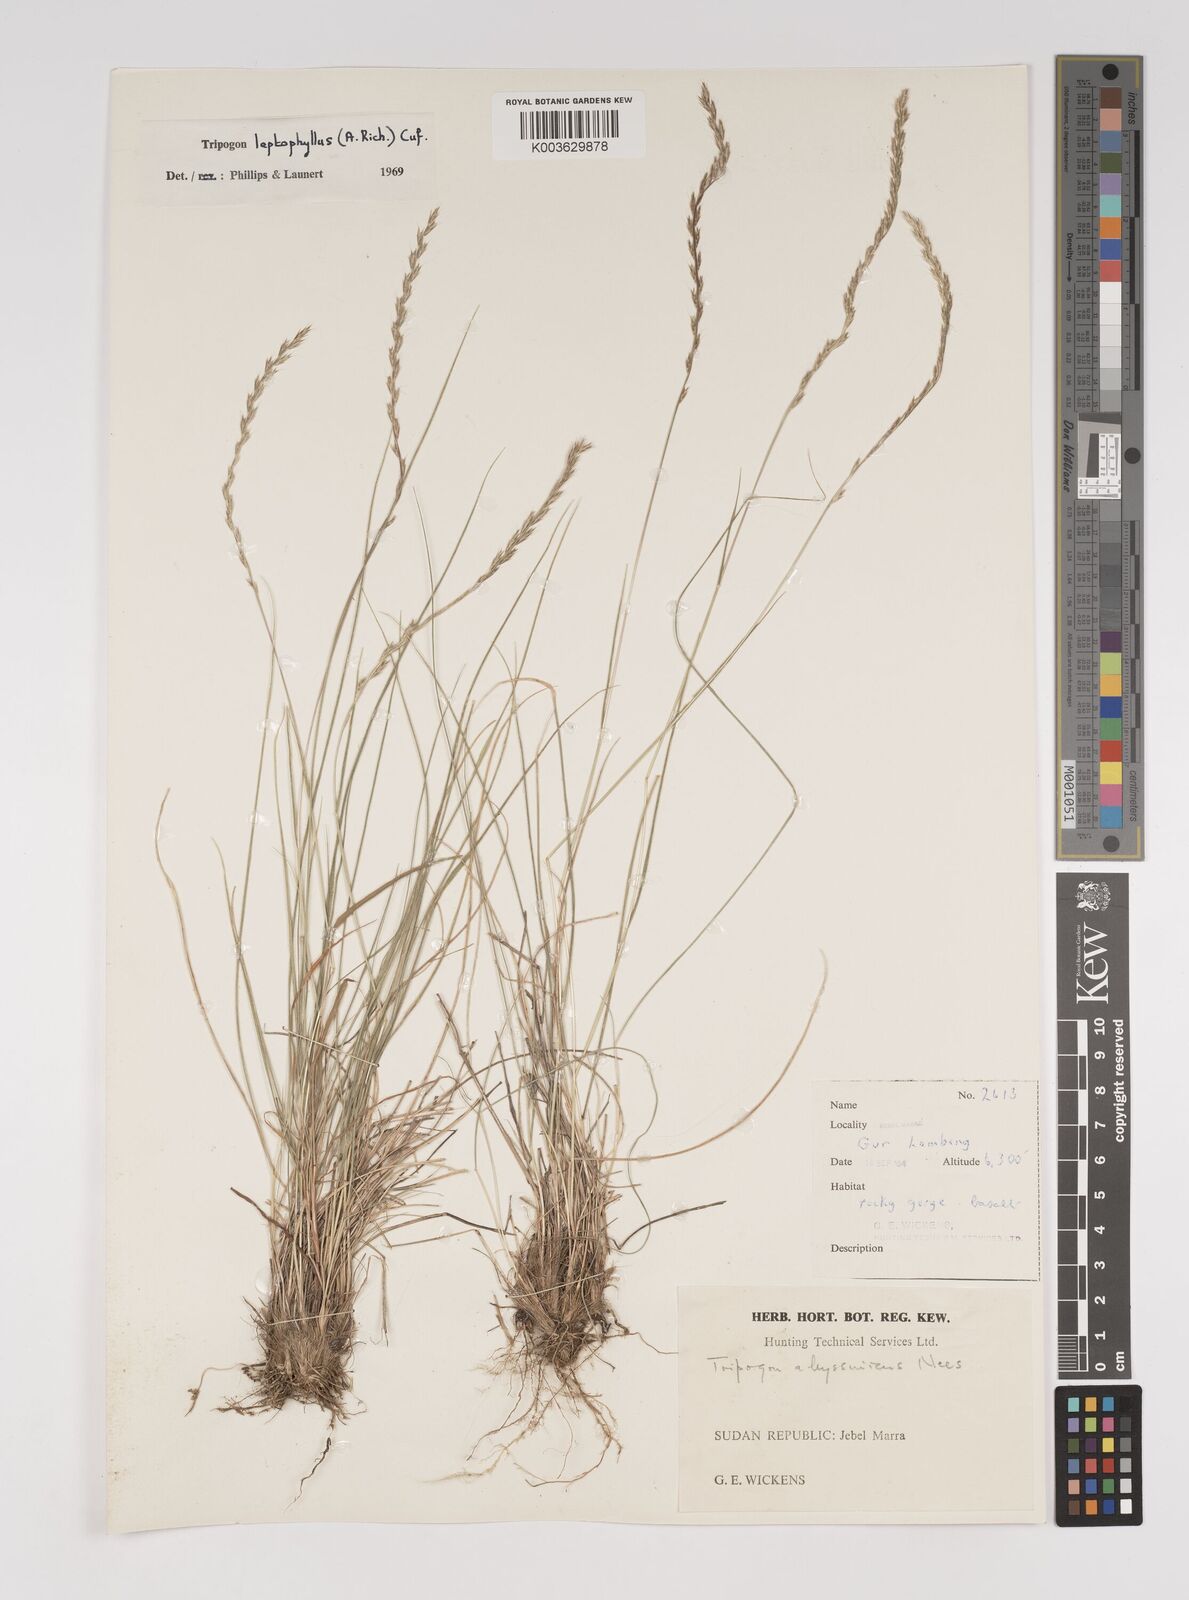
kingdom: Plantae
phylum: Tracheophyta
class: Liliopsida
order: Poales
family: Poaceae
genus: Tripogon
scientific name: Tripogon leptophyllus
